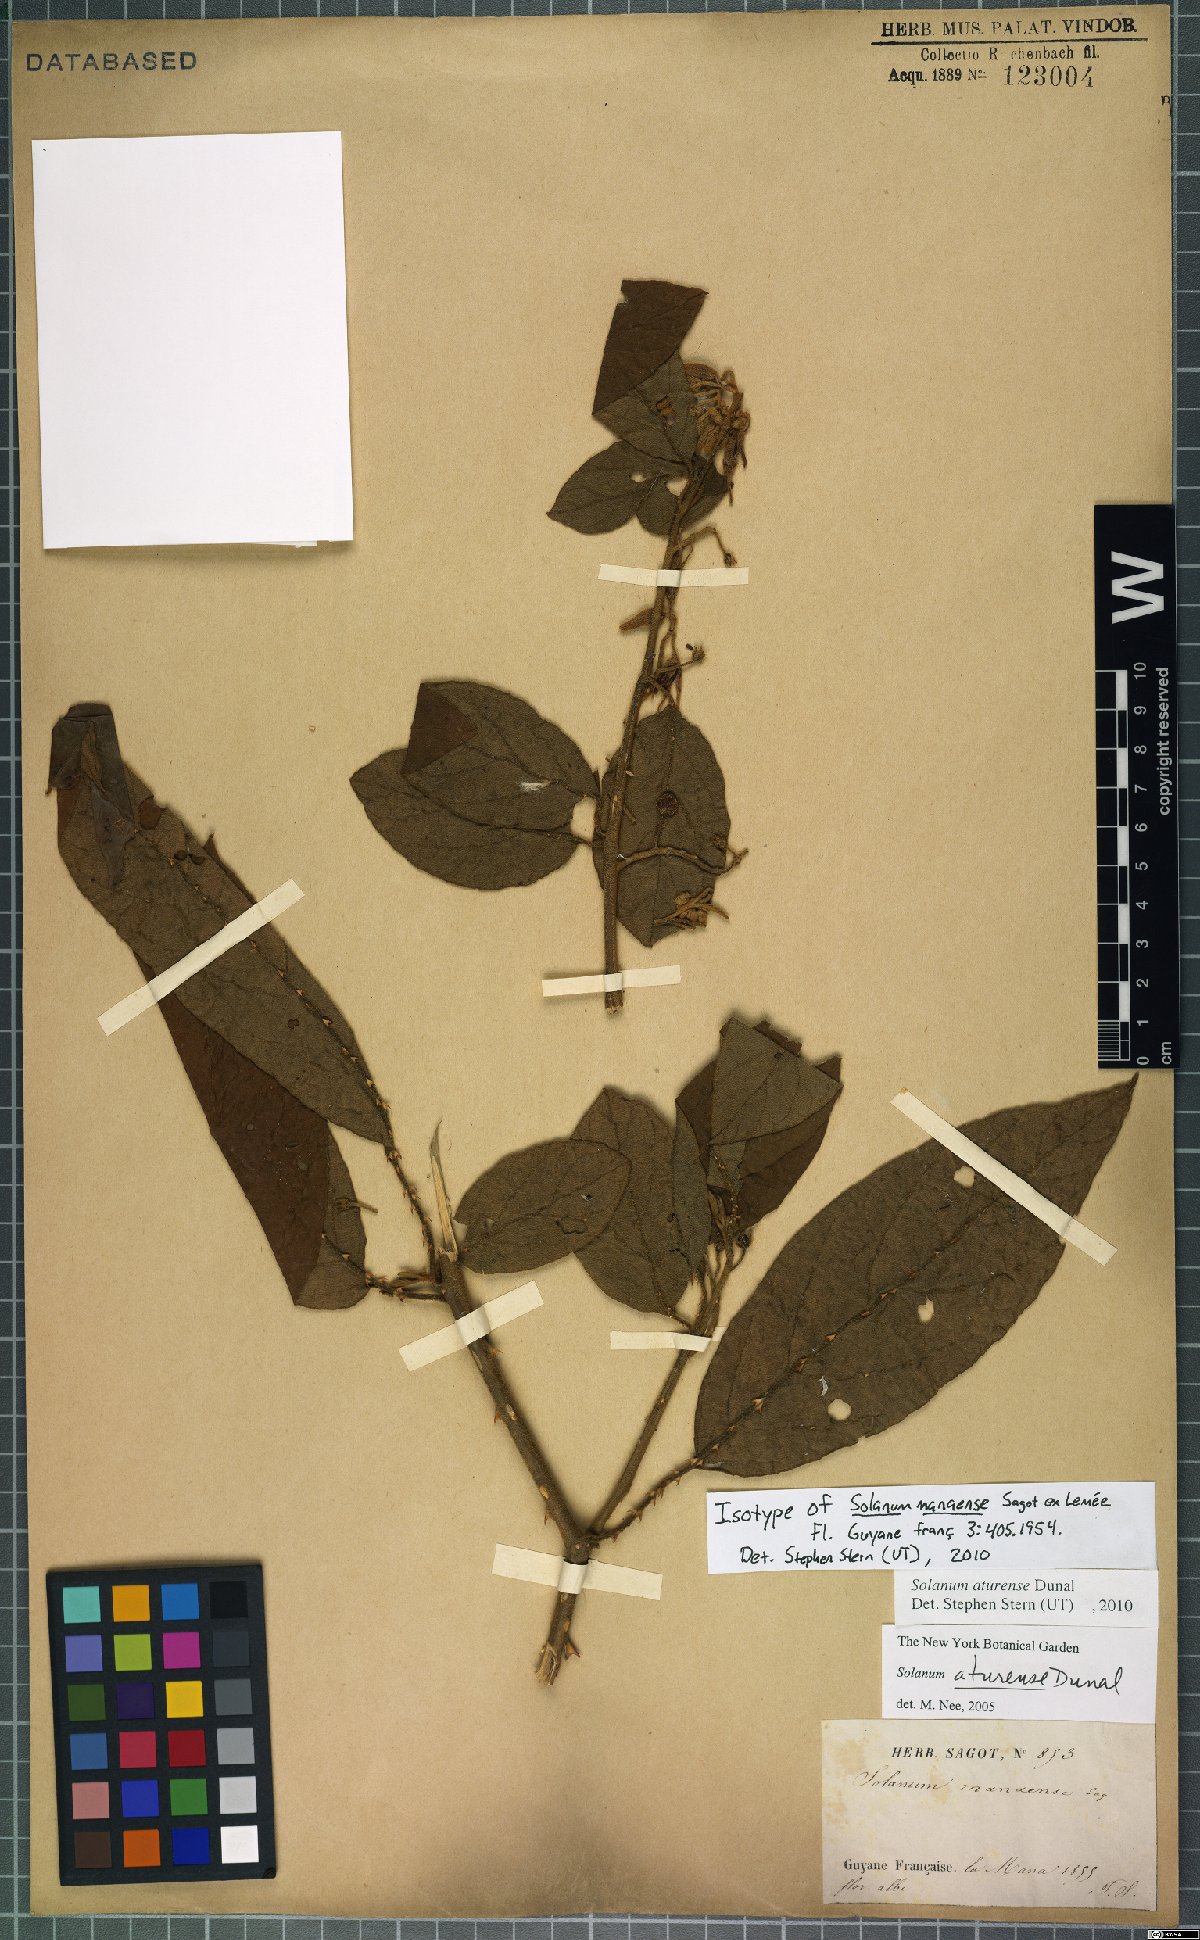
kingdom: Plantae
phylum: Tracheophyta
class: Magnoliopsida
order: Solanales
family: Solanaceae
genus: Solanum
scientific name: Solanum aturense
